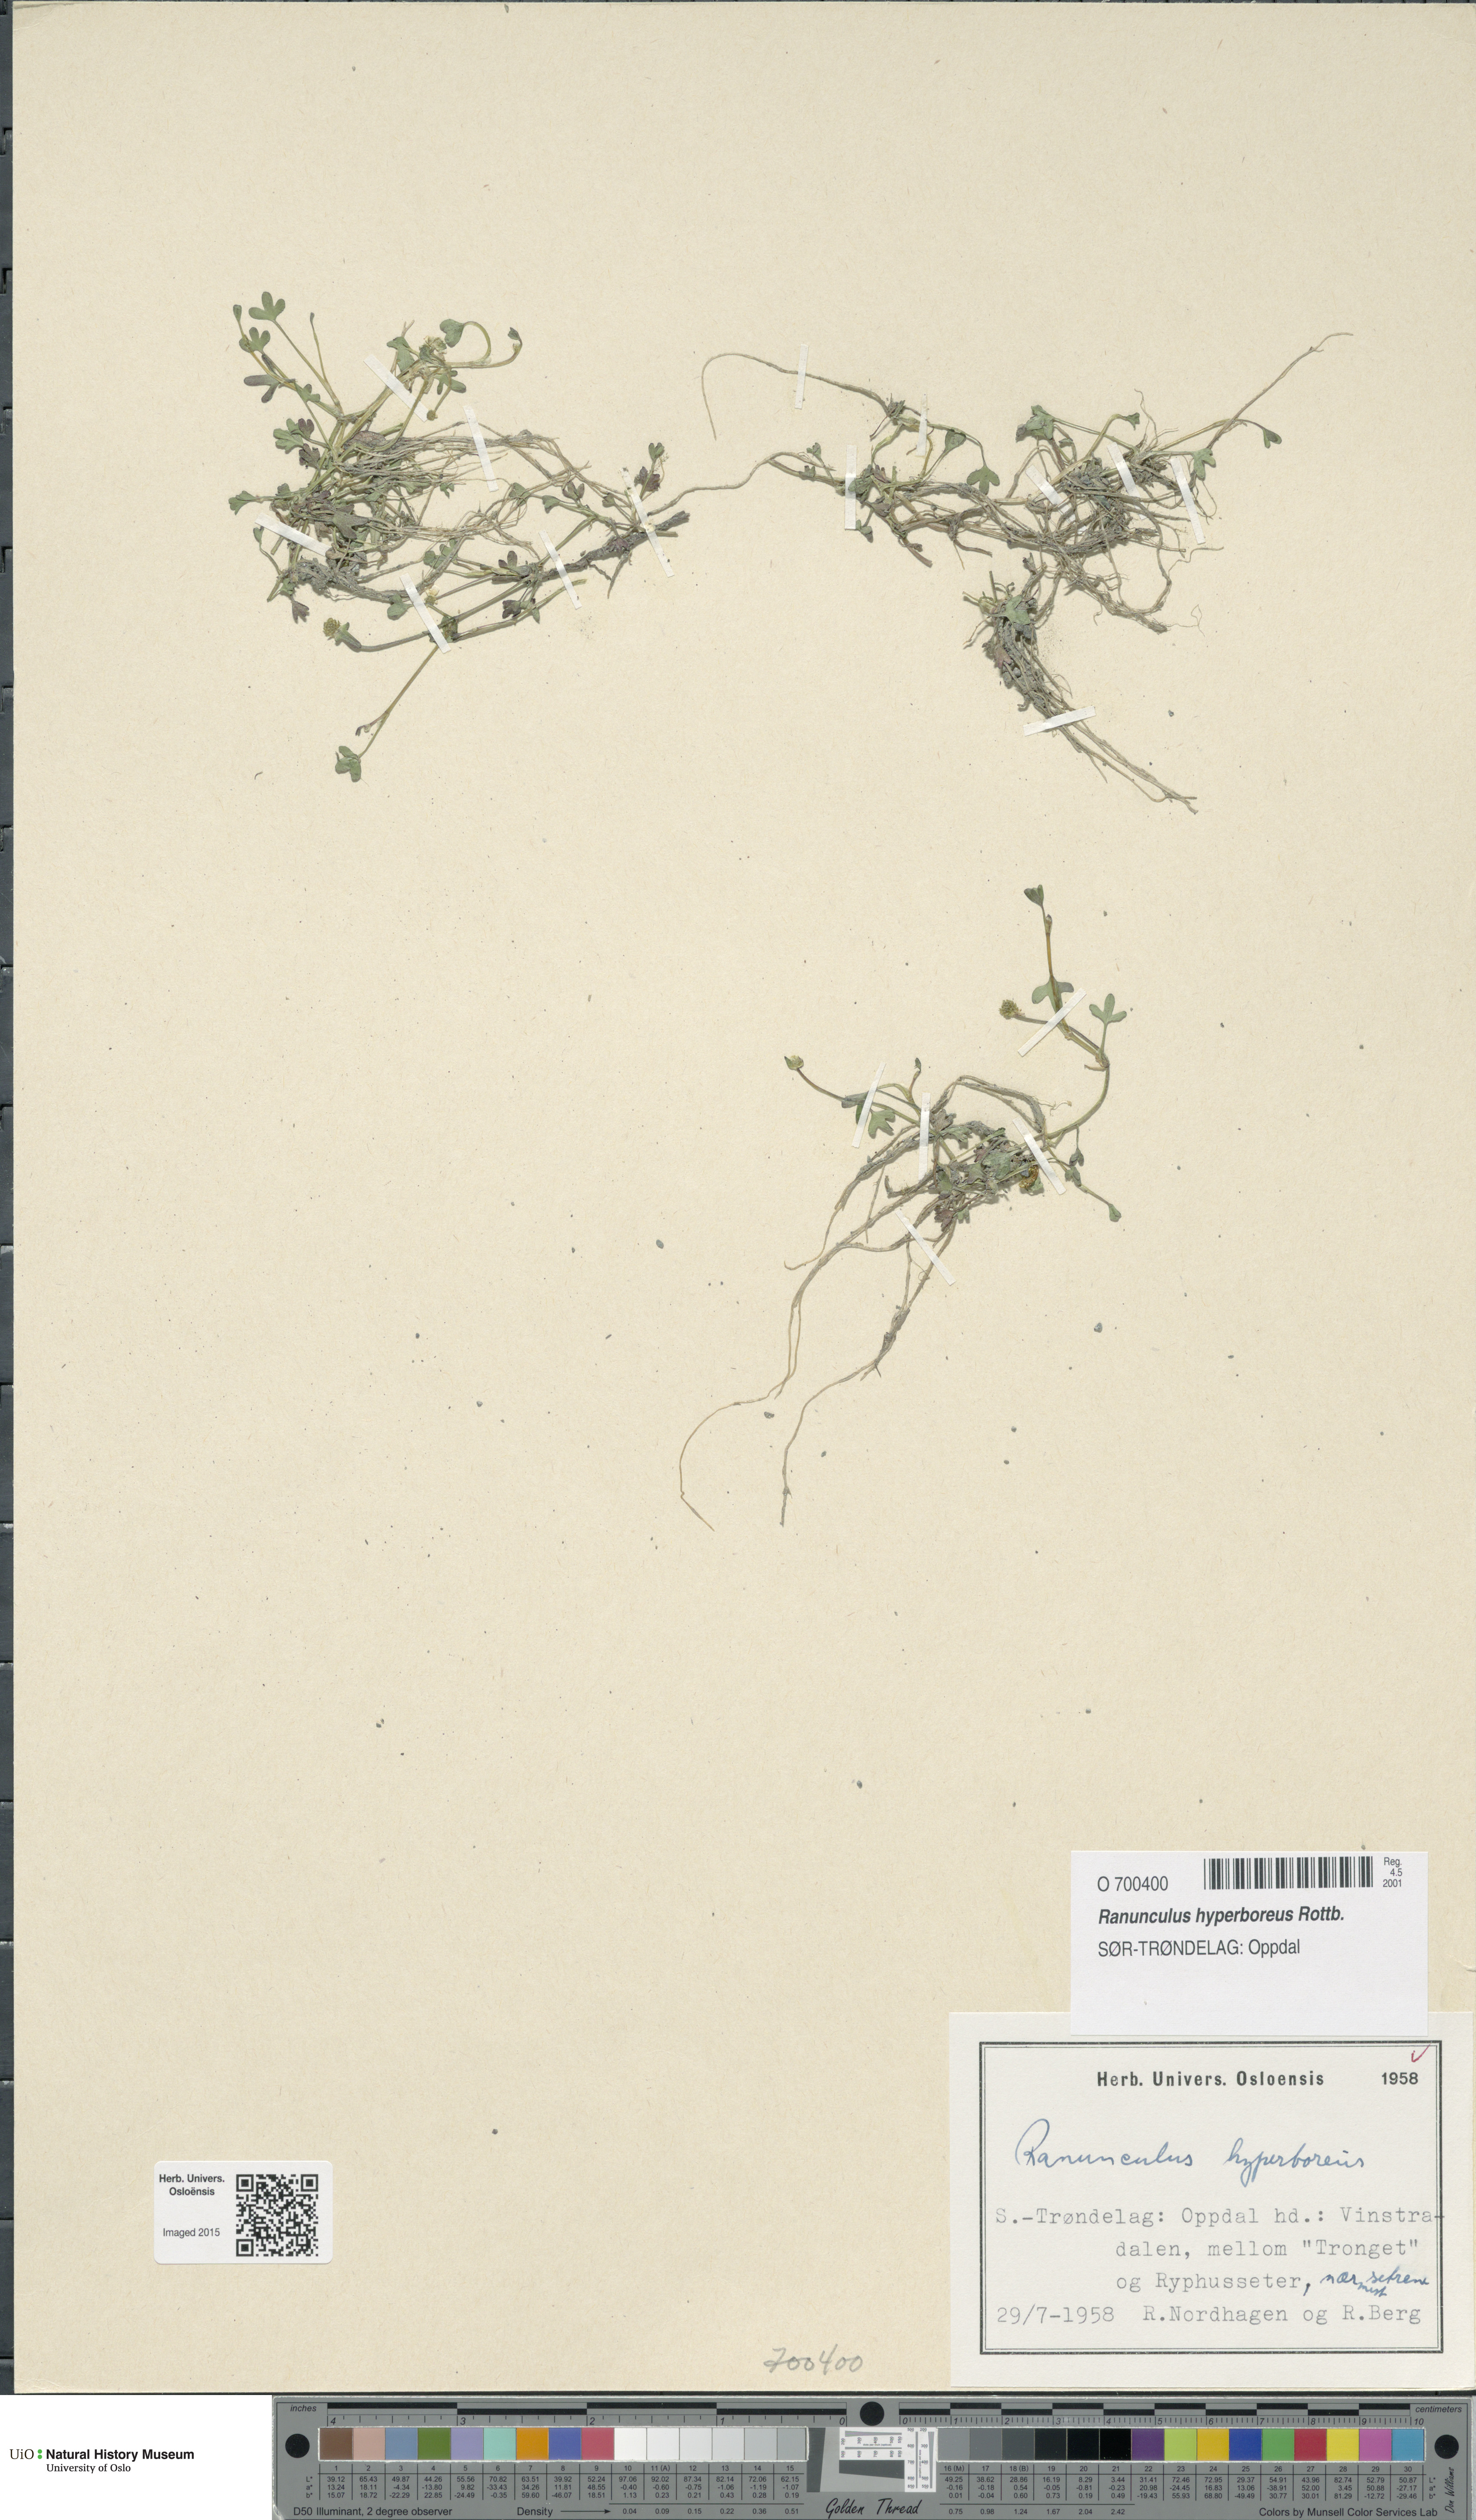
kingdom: Plantae
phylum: Tracheophyta
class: Magnoliopsida
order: Ranunculales
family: Ranunculaceae
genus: Ranunculus
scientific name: Ranunculus hyperboreus
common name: Arctic buttercup
